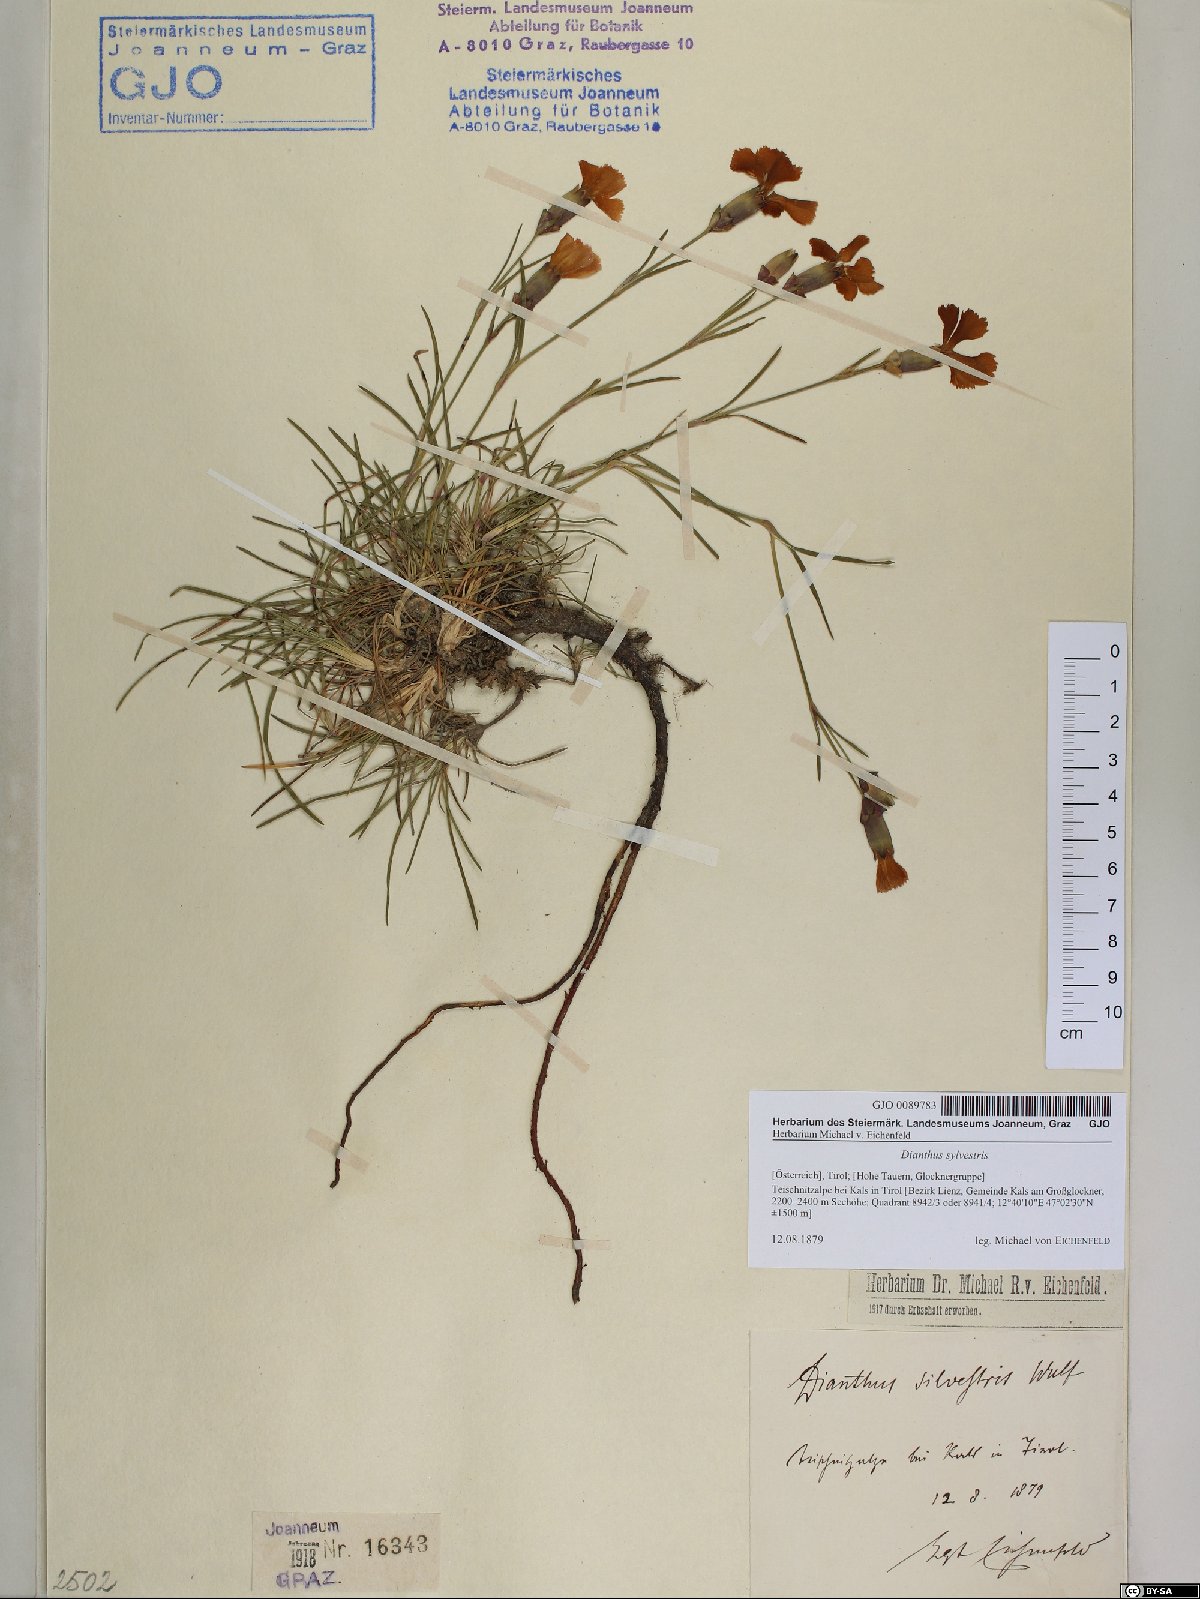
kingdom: Plantae
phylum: Tracheophyta
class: Magnoliopsida
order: Caryophyllales
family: Caryophyllaceae
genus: Dianthus
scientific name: Dianthus sylvestris
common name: Wood pink
